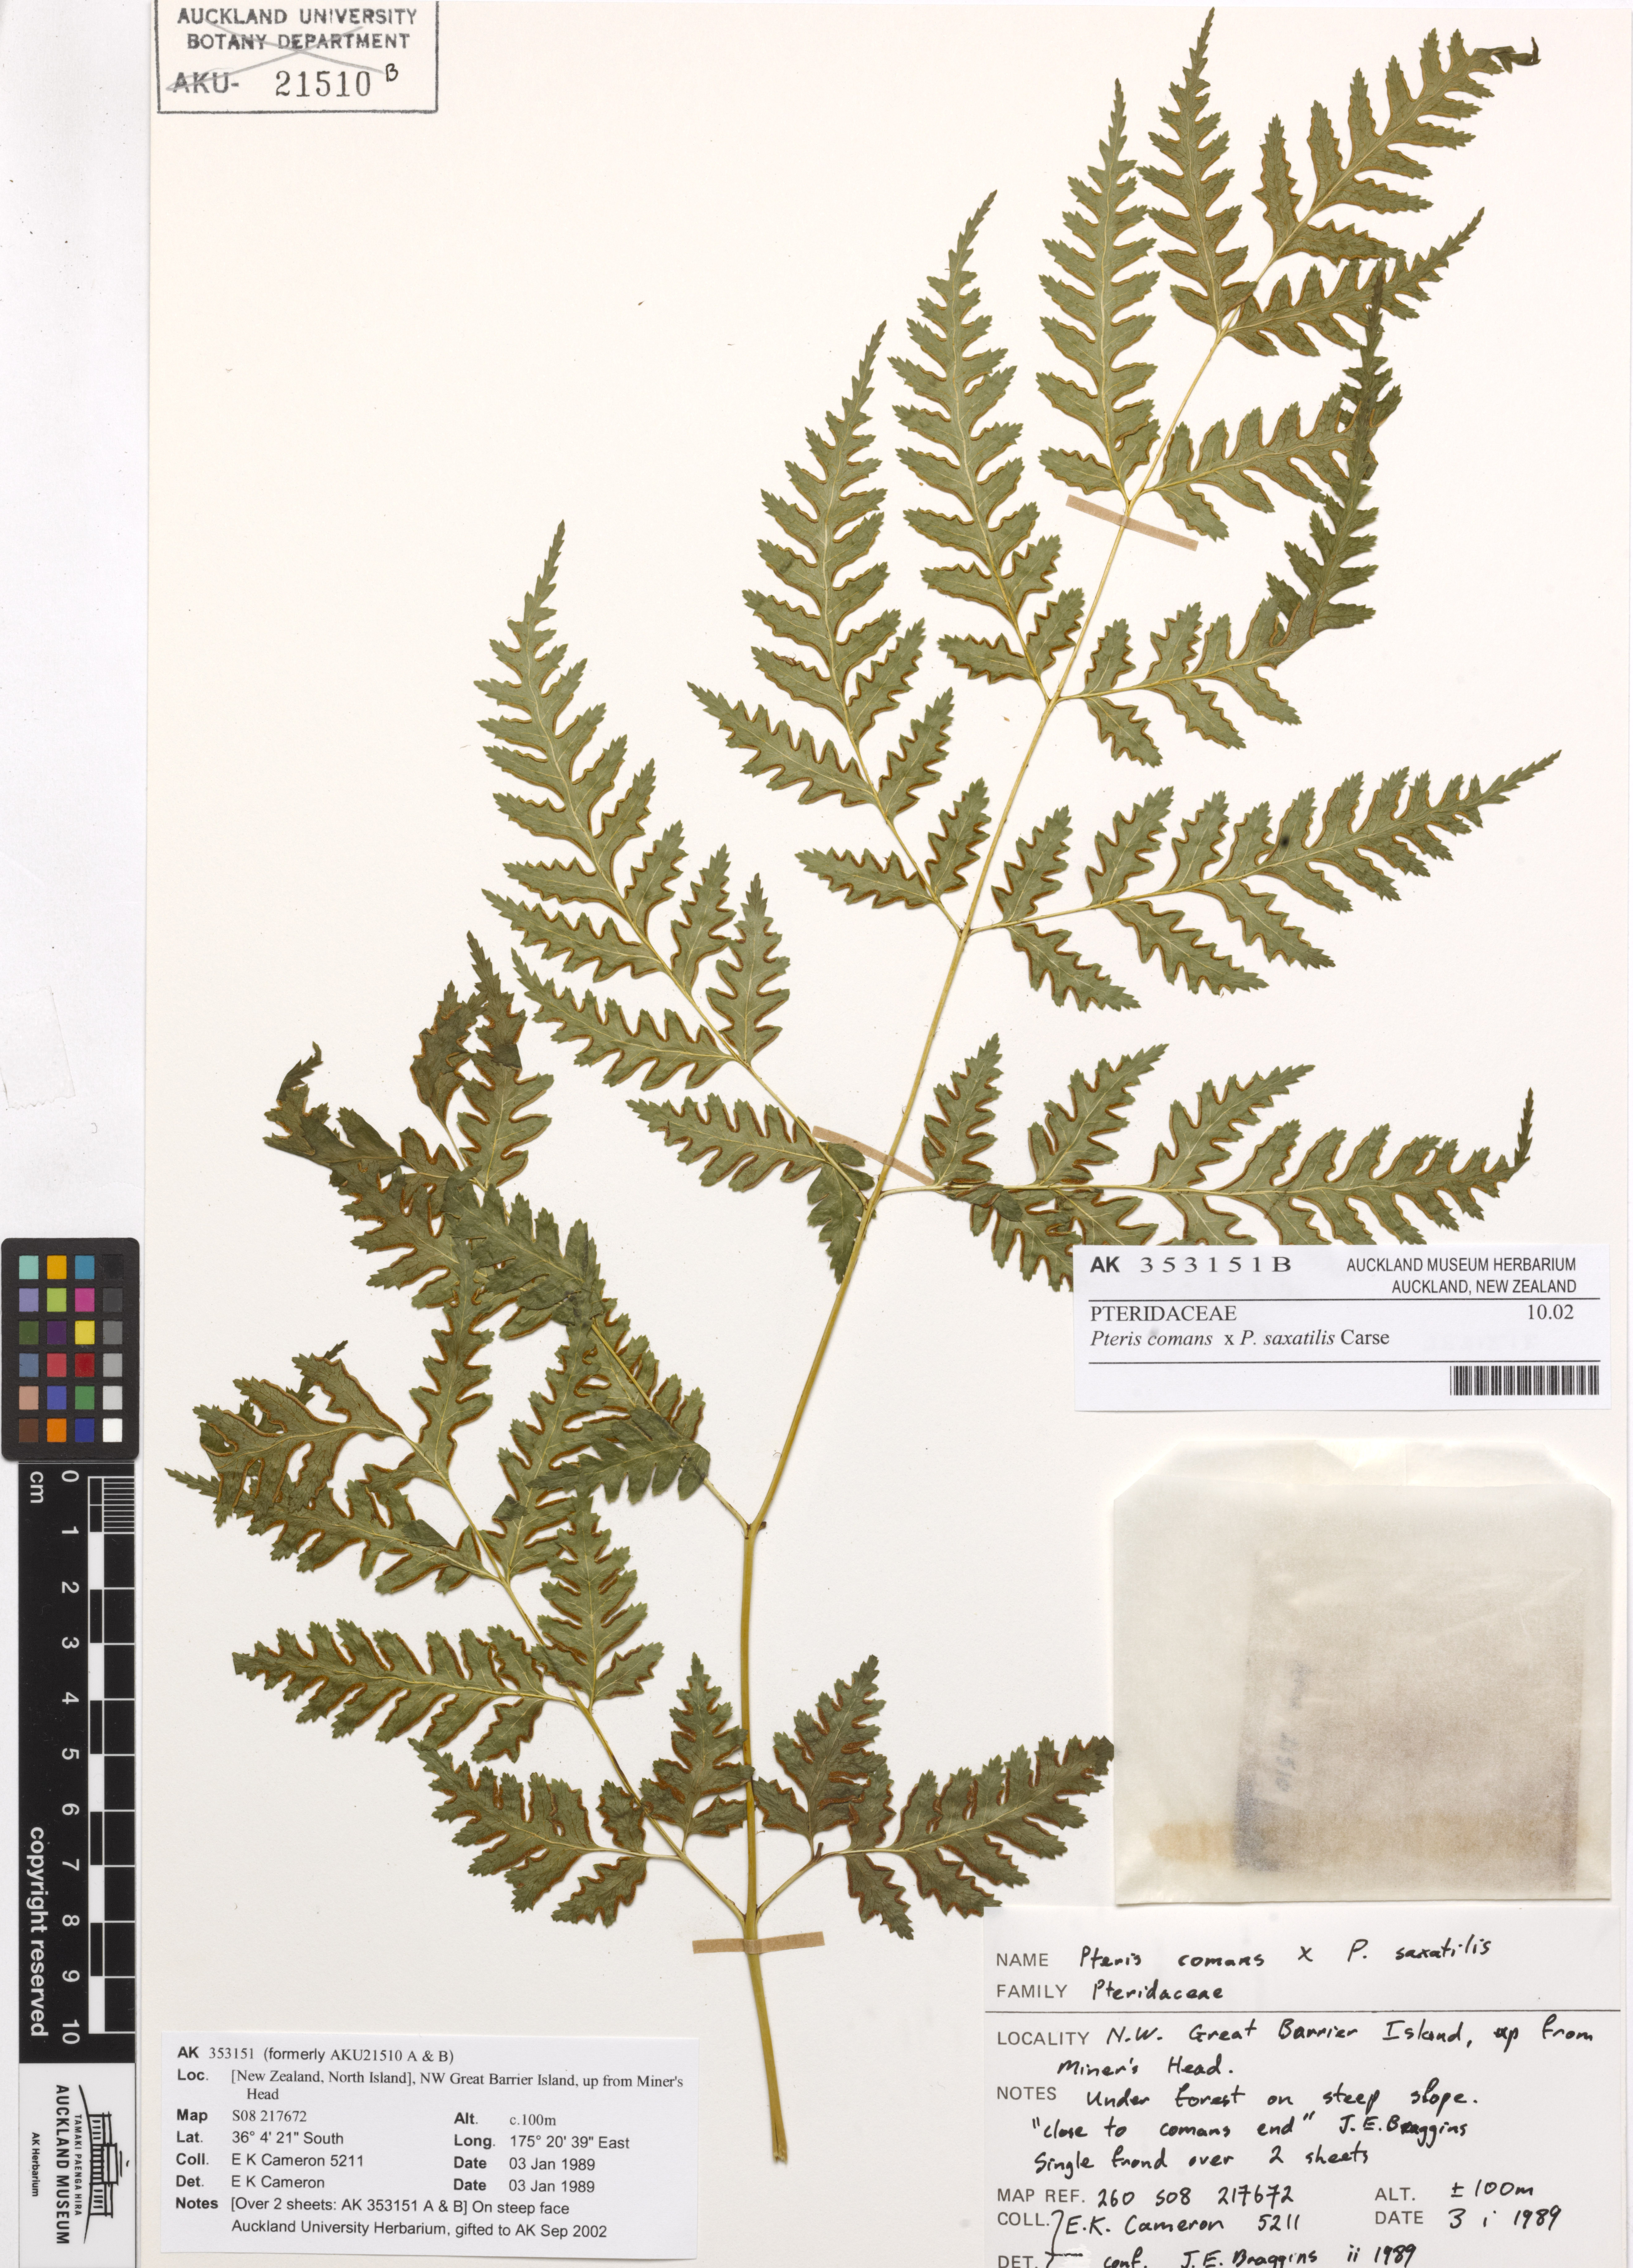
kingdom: Plantae
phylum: Tracheophyta
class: Polypodiopsida
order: Polypodiales
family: Pteridaceae
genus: Pteris
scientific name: Pteris macilenta
